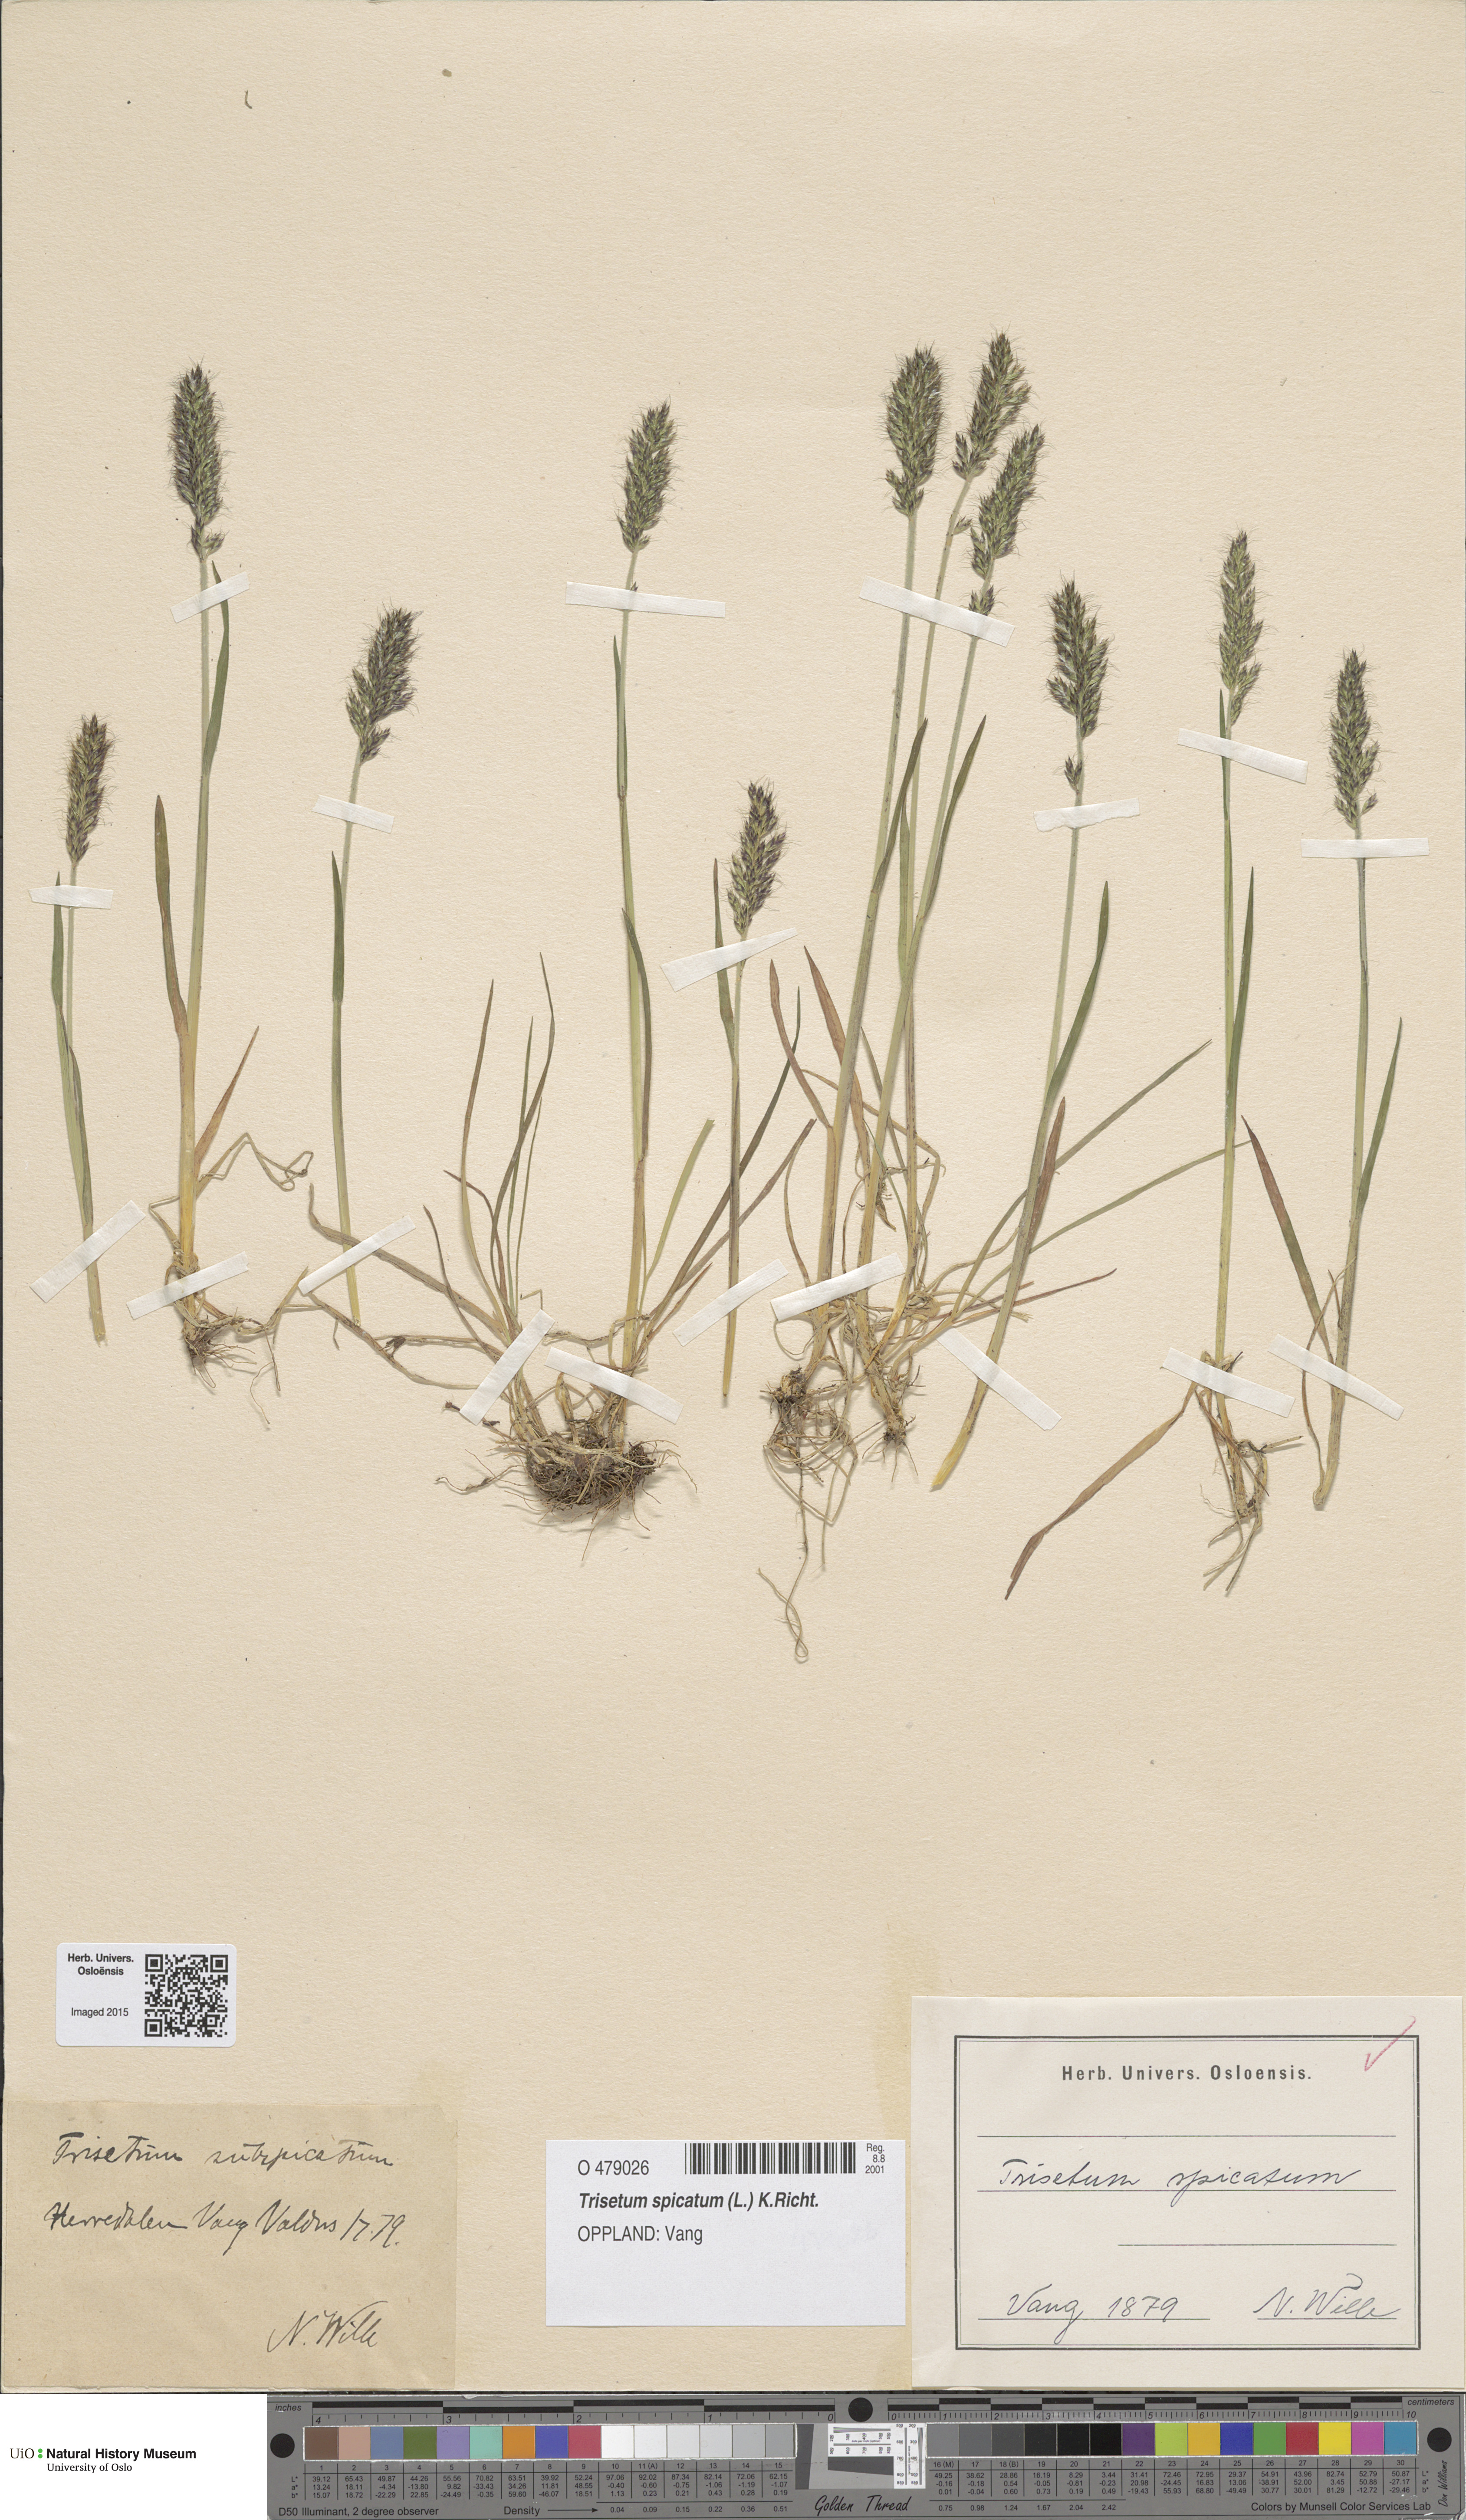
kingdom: Plantae
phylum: Tracheophyta
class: Liliopsida
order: Poales
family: Poaceae
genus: Koeleria
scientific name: Koeleria spicata
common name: Mountain trisetum
